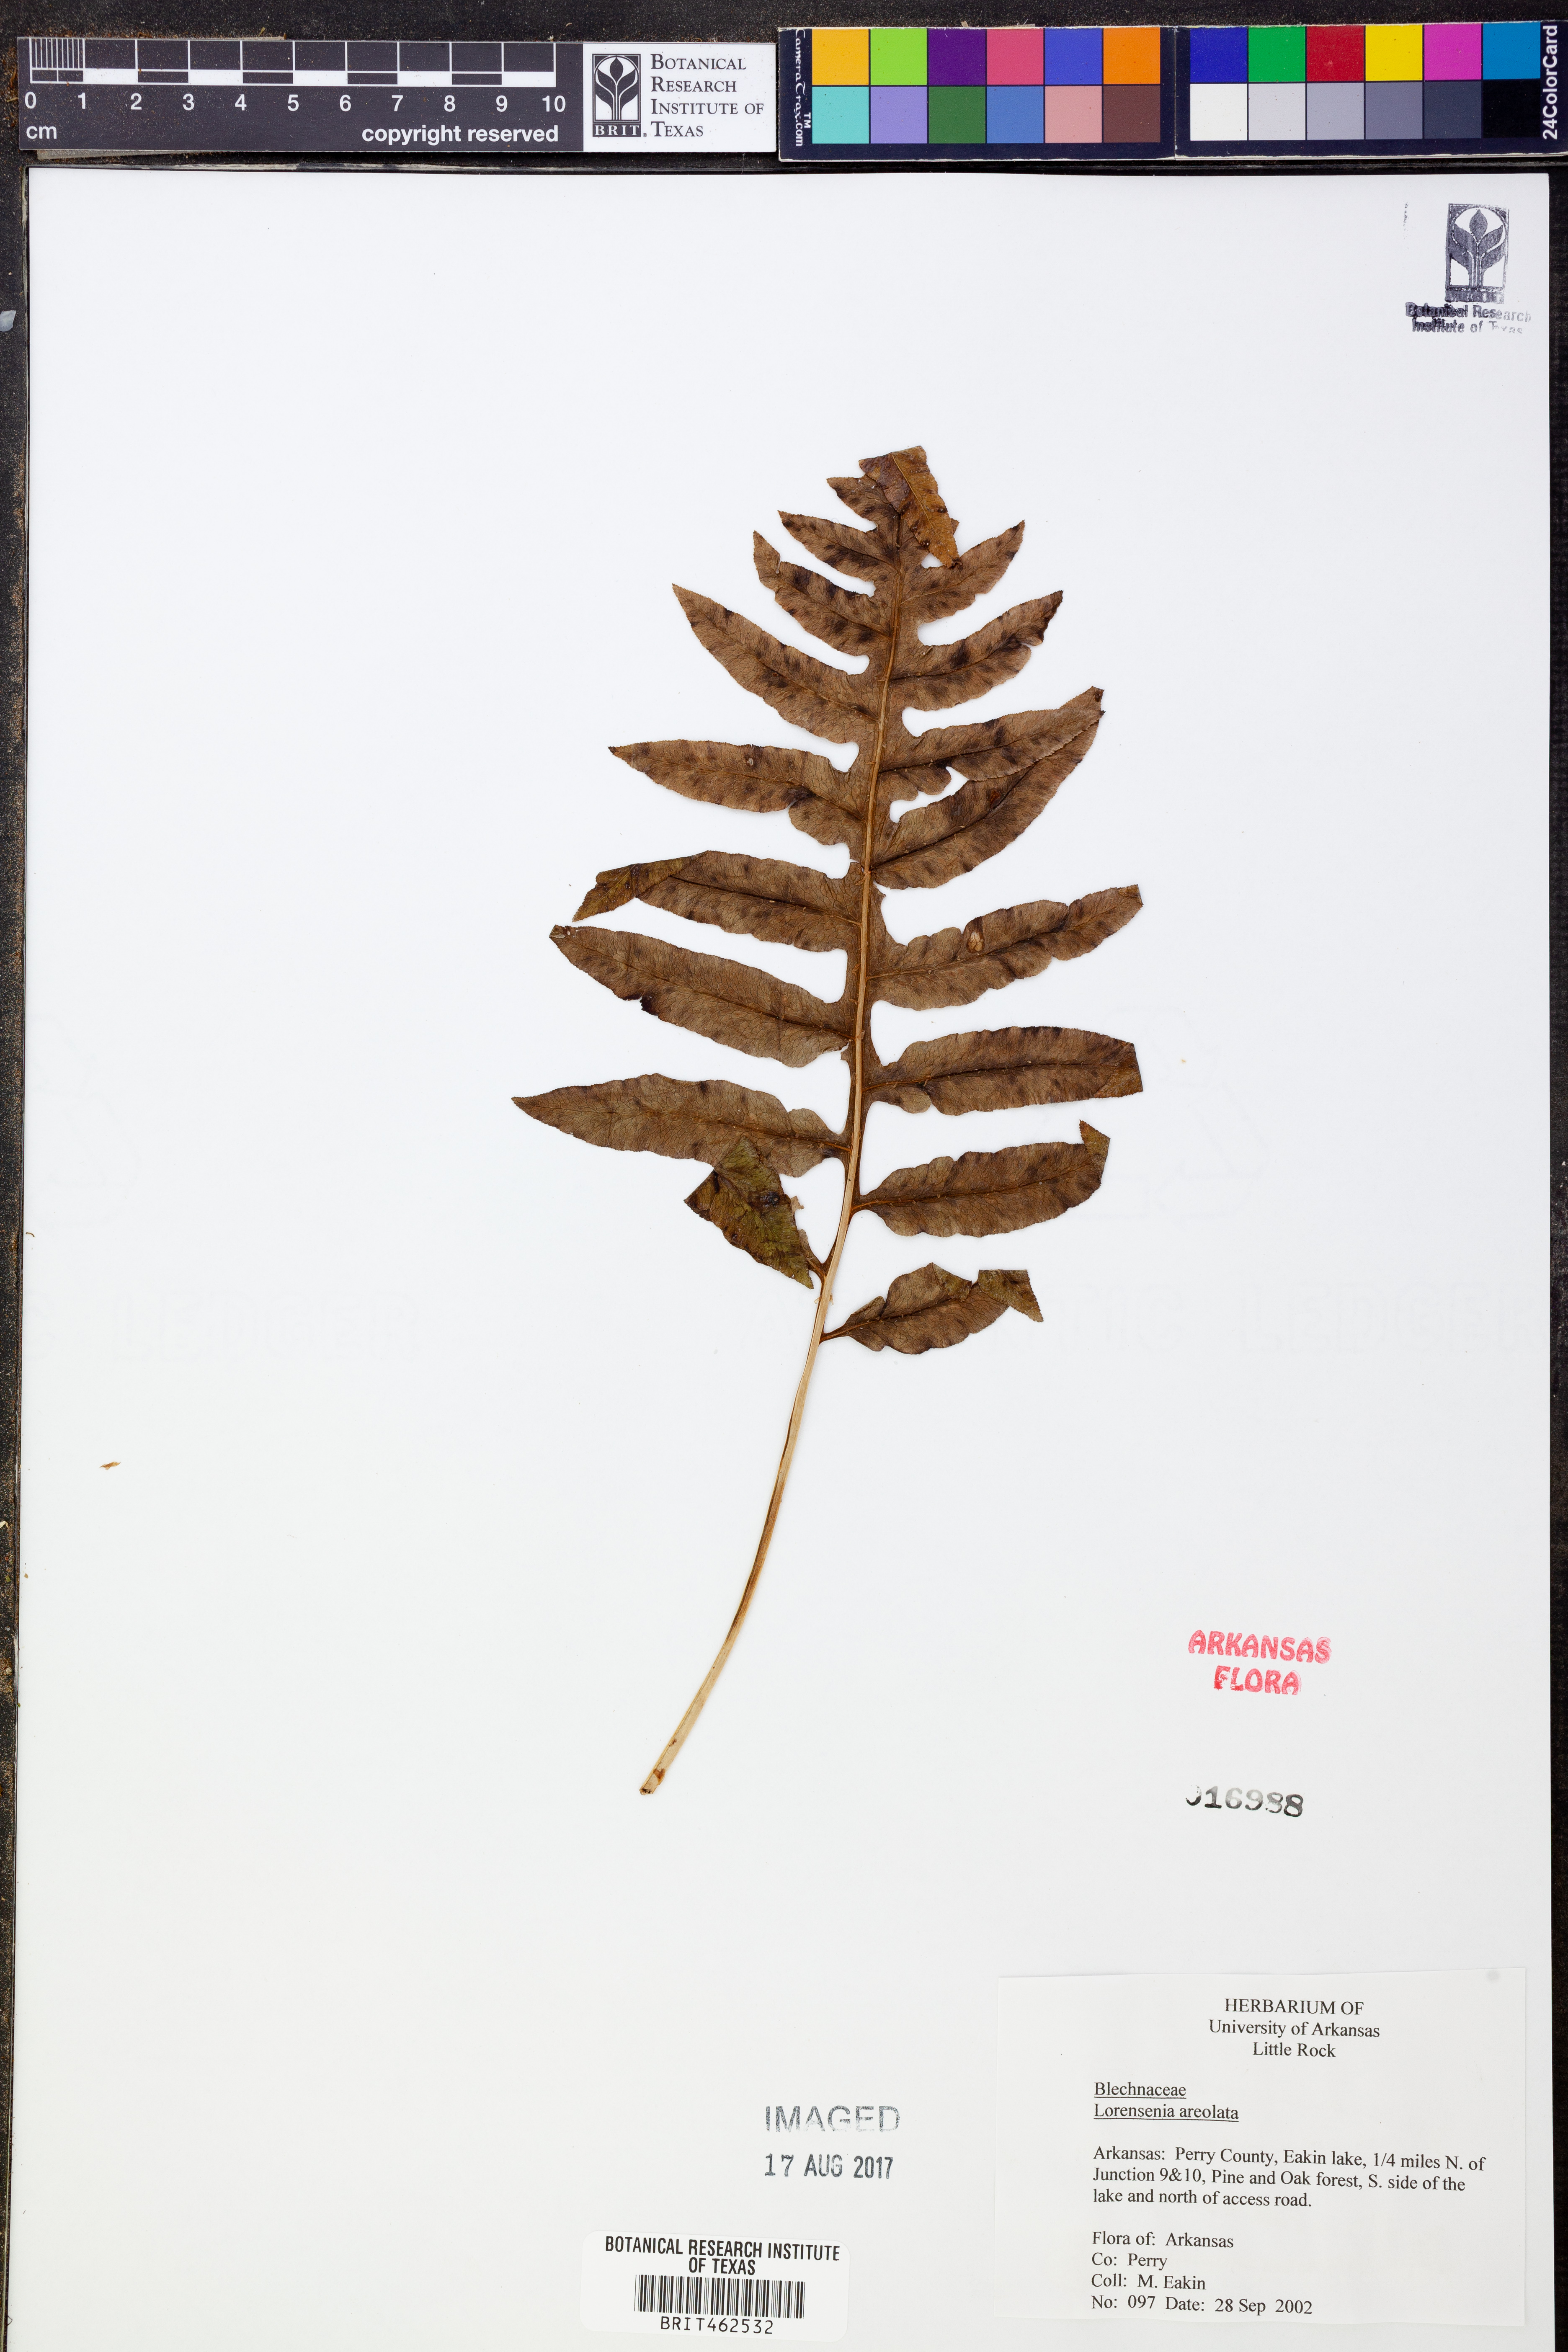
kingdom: Plantae
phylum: Tracheophyta
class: Polypodiopsida
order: Polypodiales
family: Blechnaceae
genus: Lorinseria
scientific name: Lorinseria areolata
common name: Dwarf chain fern
